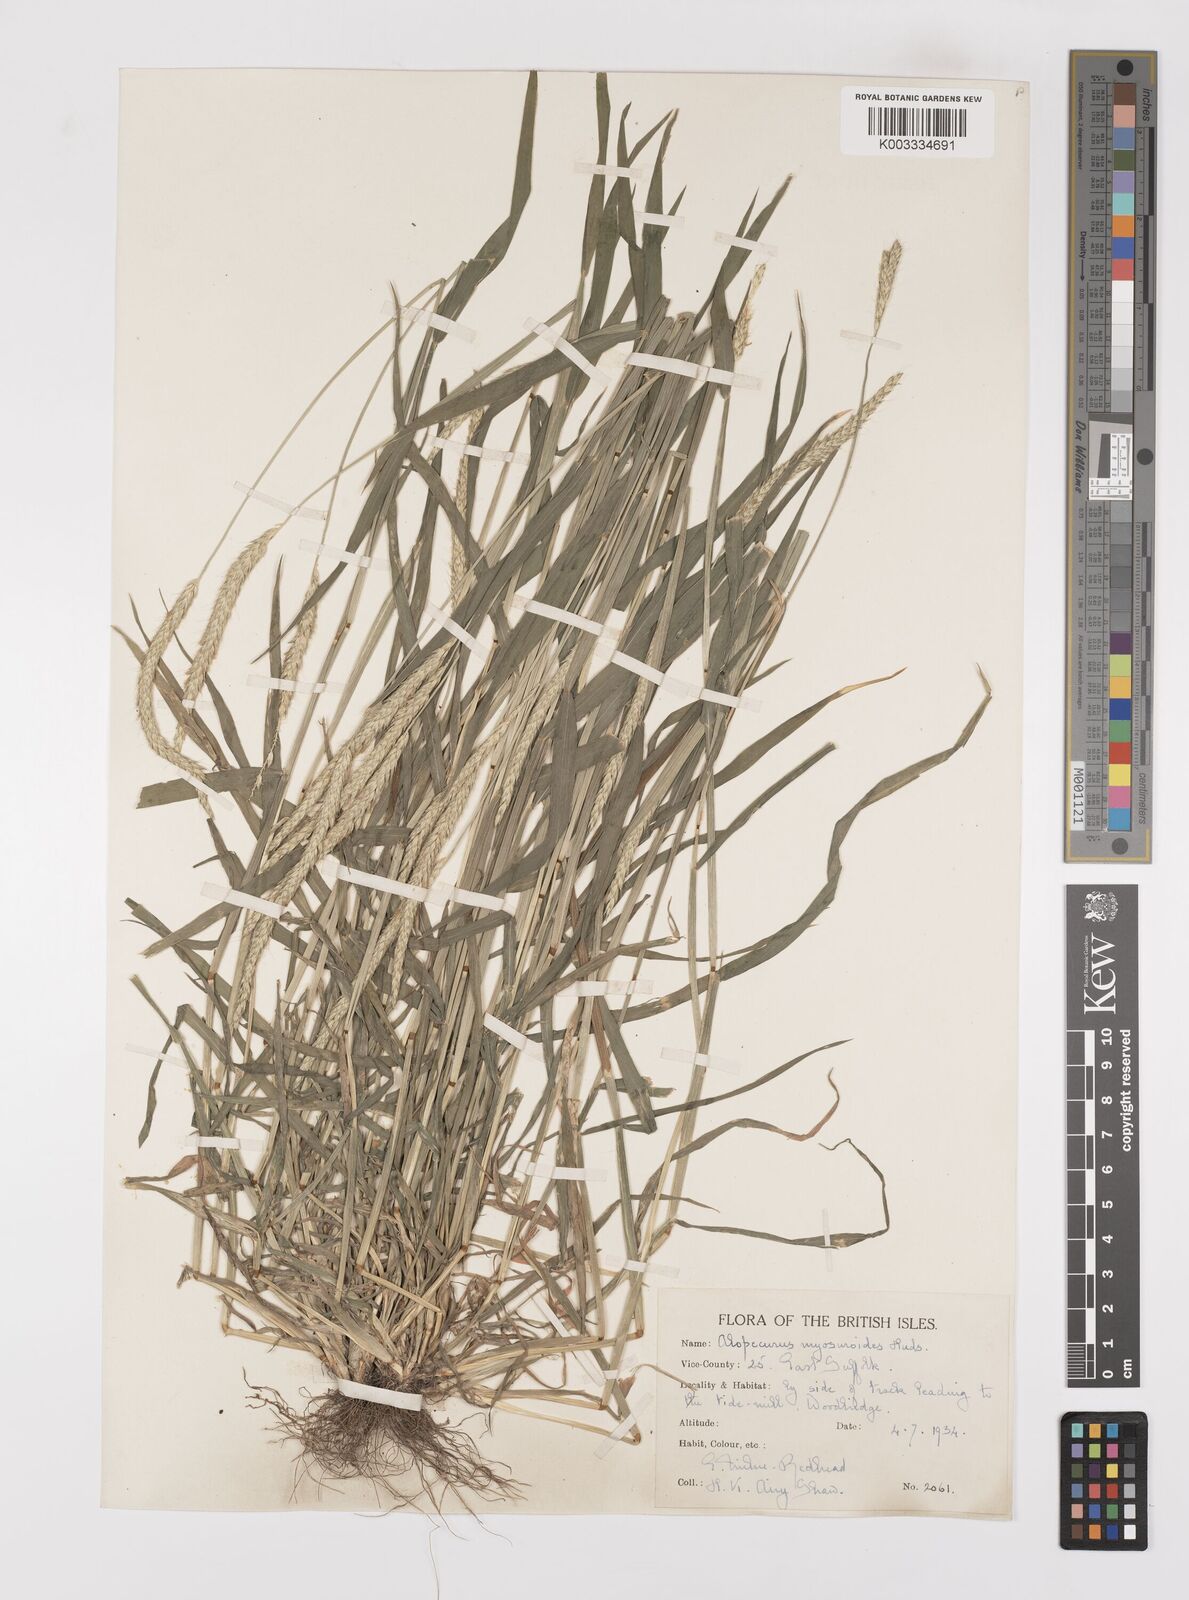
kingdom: Plantae
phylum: Tracheophyta
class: Liliopsida
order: Poales
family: Poaceae
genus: Alopecurus
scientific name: Alopecurus myosuroides
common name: Black-grass
